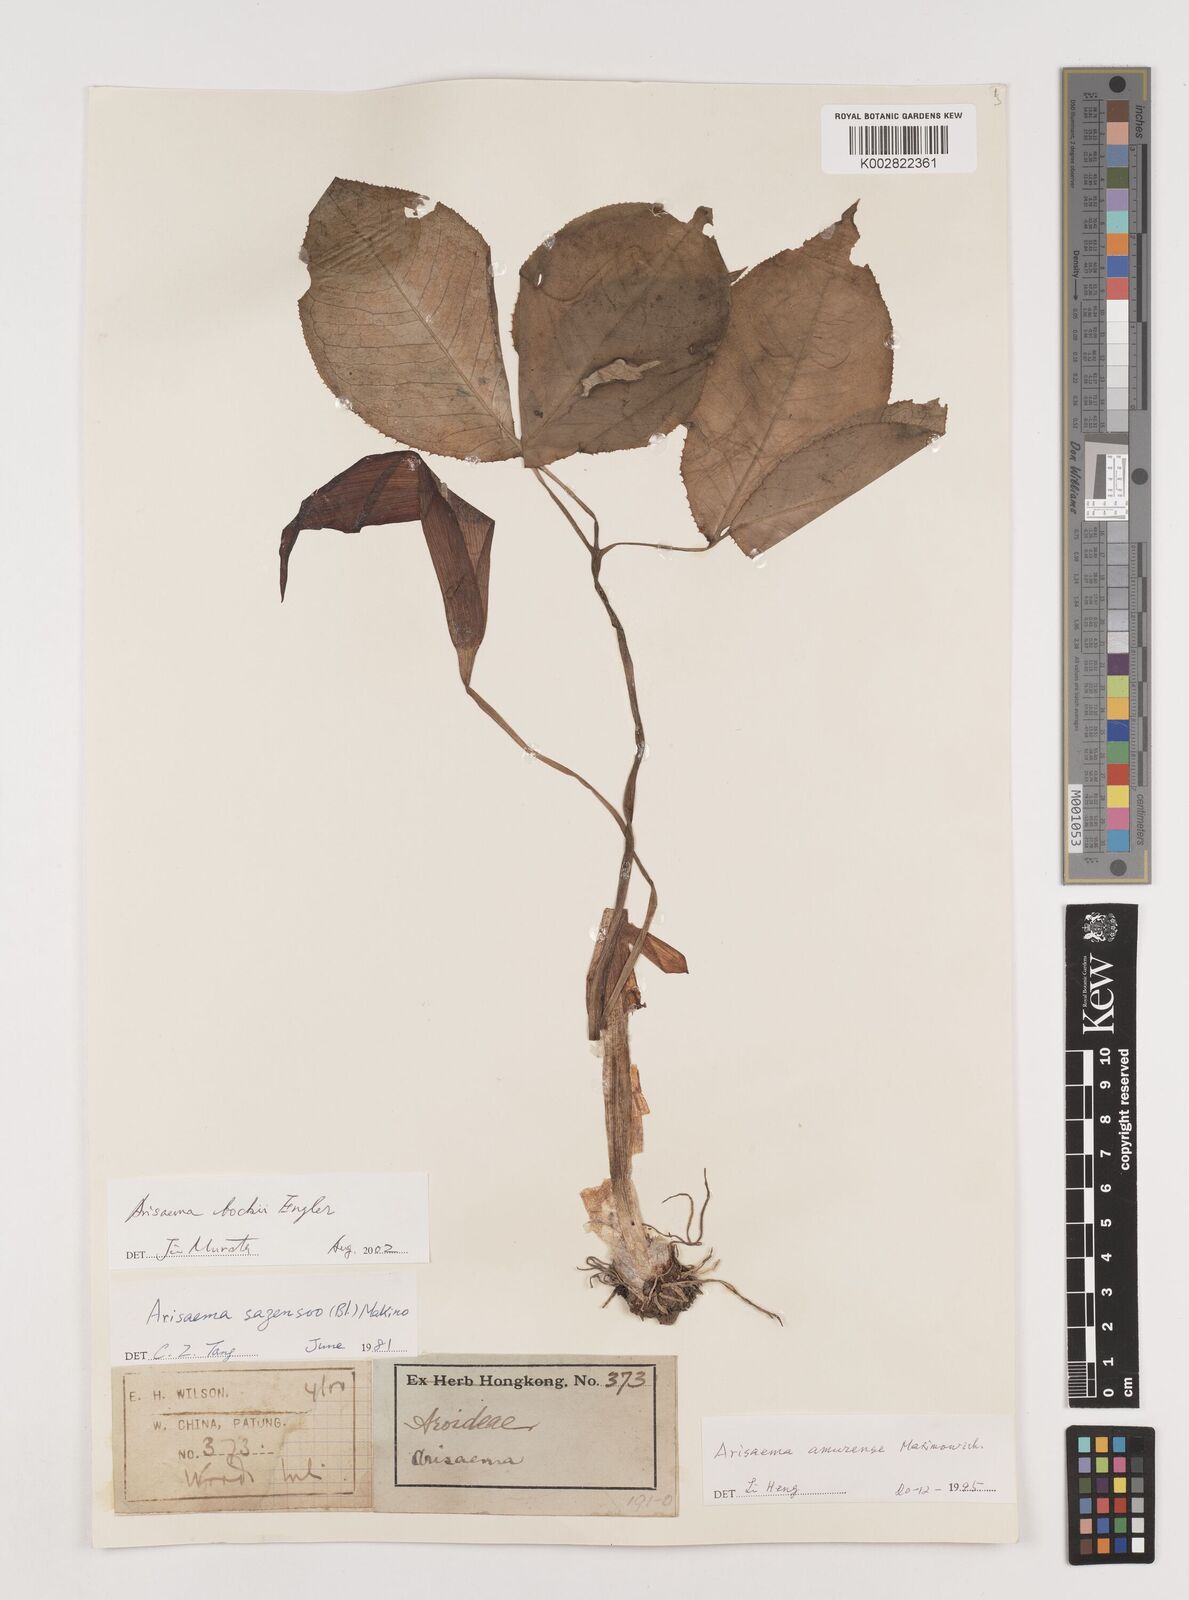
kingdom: Plantae
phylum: Tracheophyta
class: Liliopsida
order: Alismatales
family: Araceae
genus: Arisaema
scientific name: Arisaema bockii
